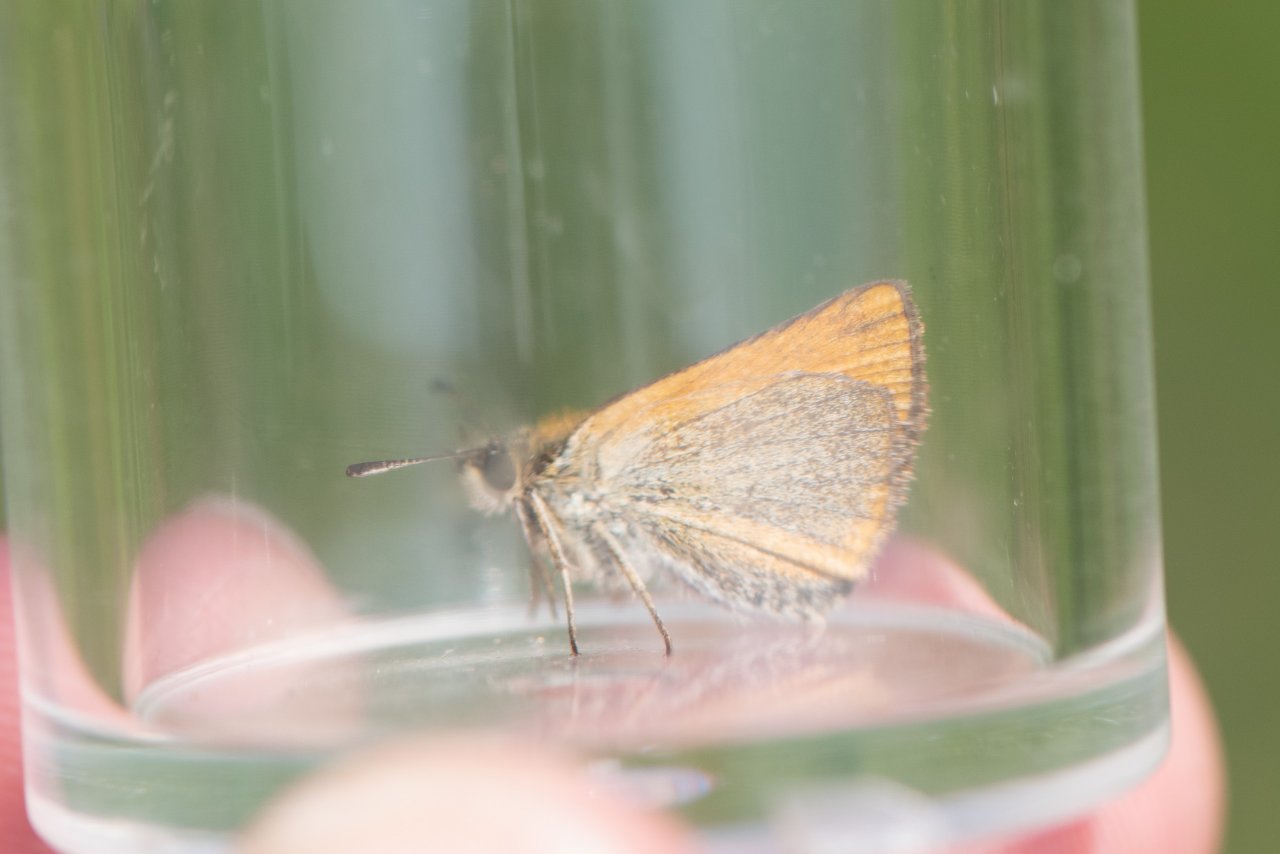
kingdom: Animalia
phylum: Arthropoda
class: Insecta
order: Lepidoptera
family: Hesperiidae
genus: Thymelicus
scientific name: Thymelicus lineola
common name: European Skipper
